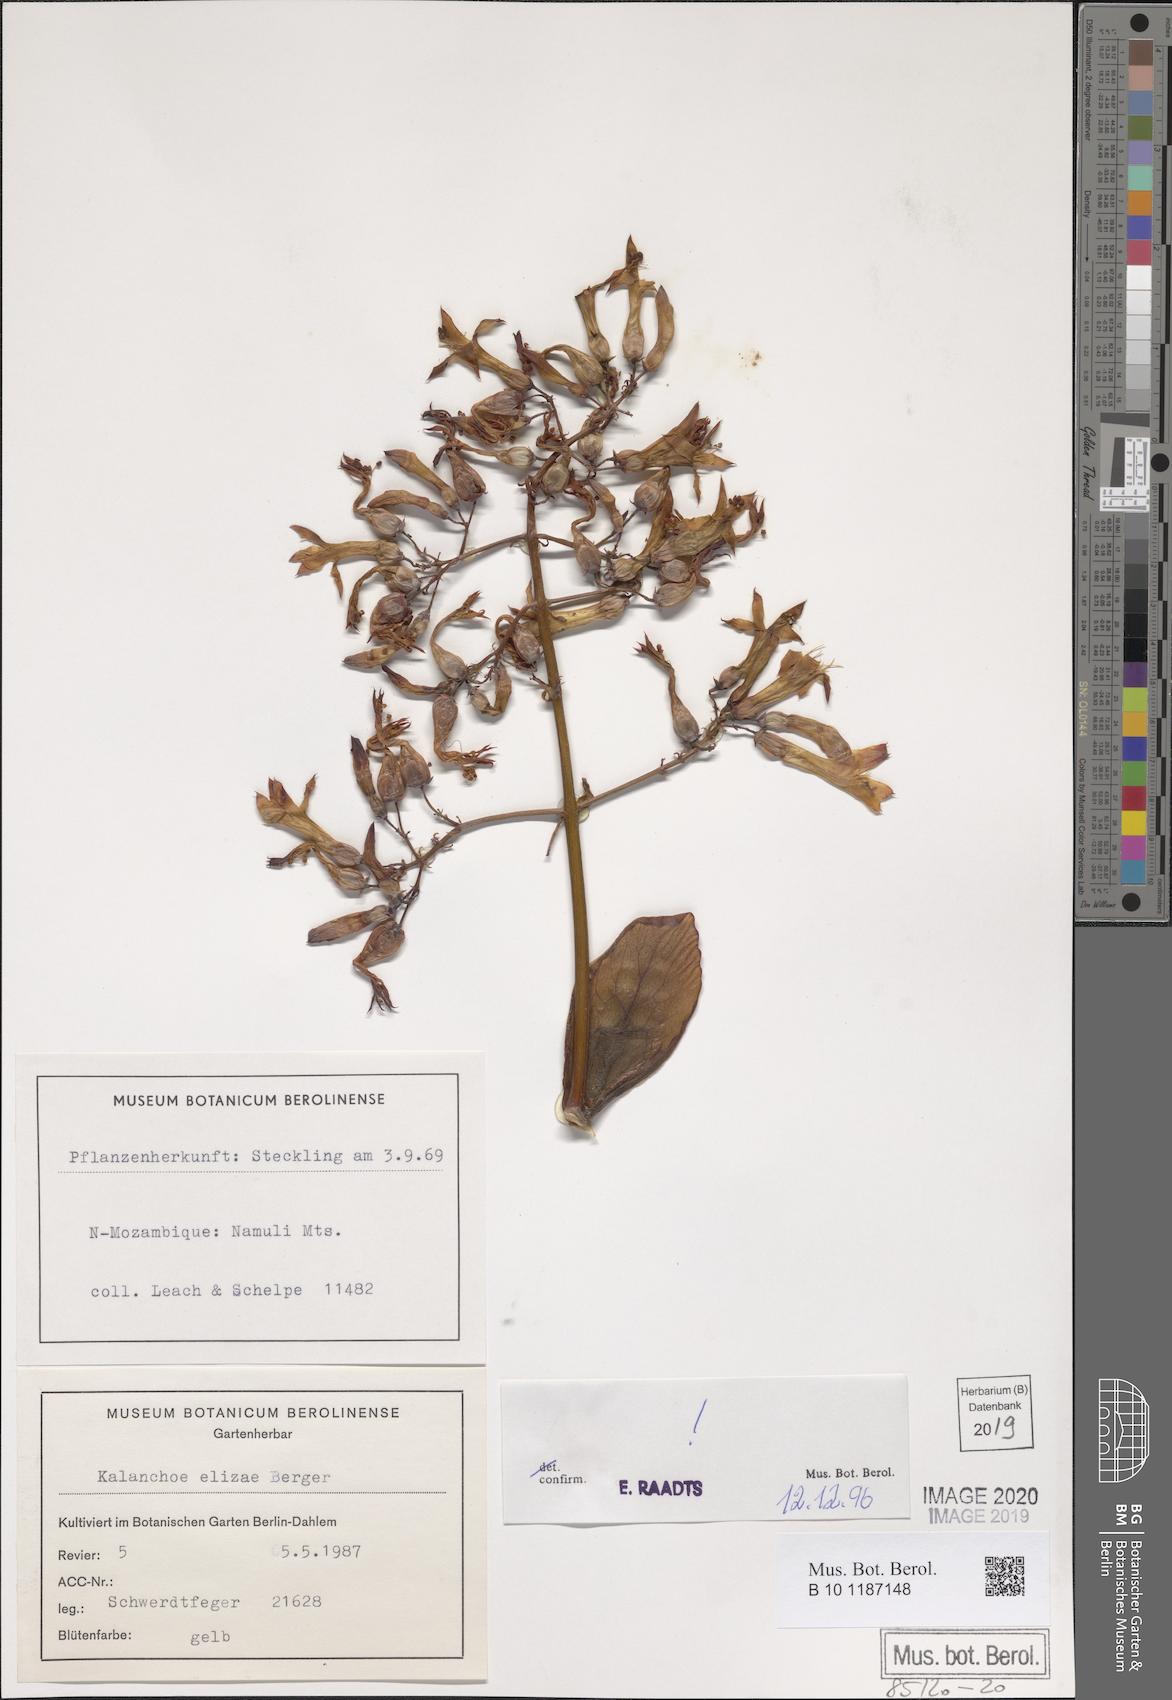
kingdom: Plantae
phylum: Tracheophyta
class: Magnoliopsida
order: Saxifragales
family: Crassulaceae
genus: Kalanchoe
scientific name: Kalanchoe elizae
